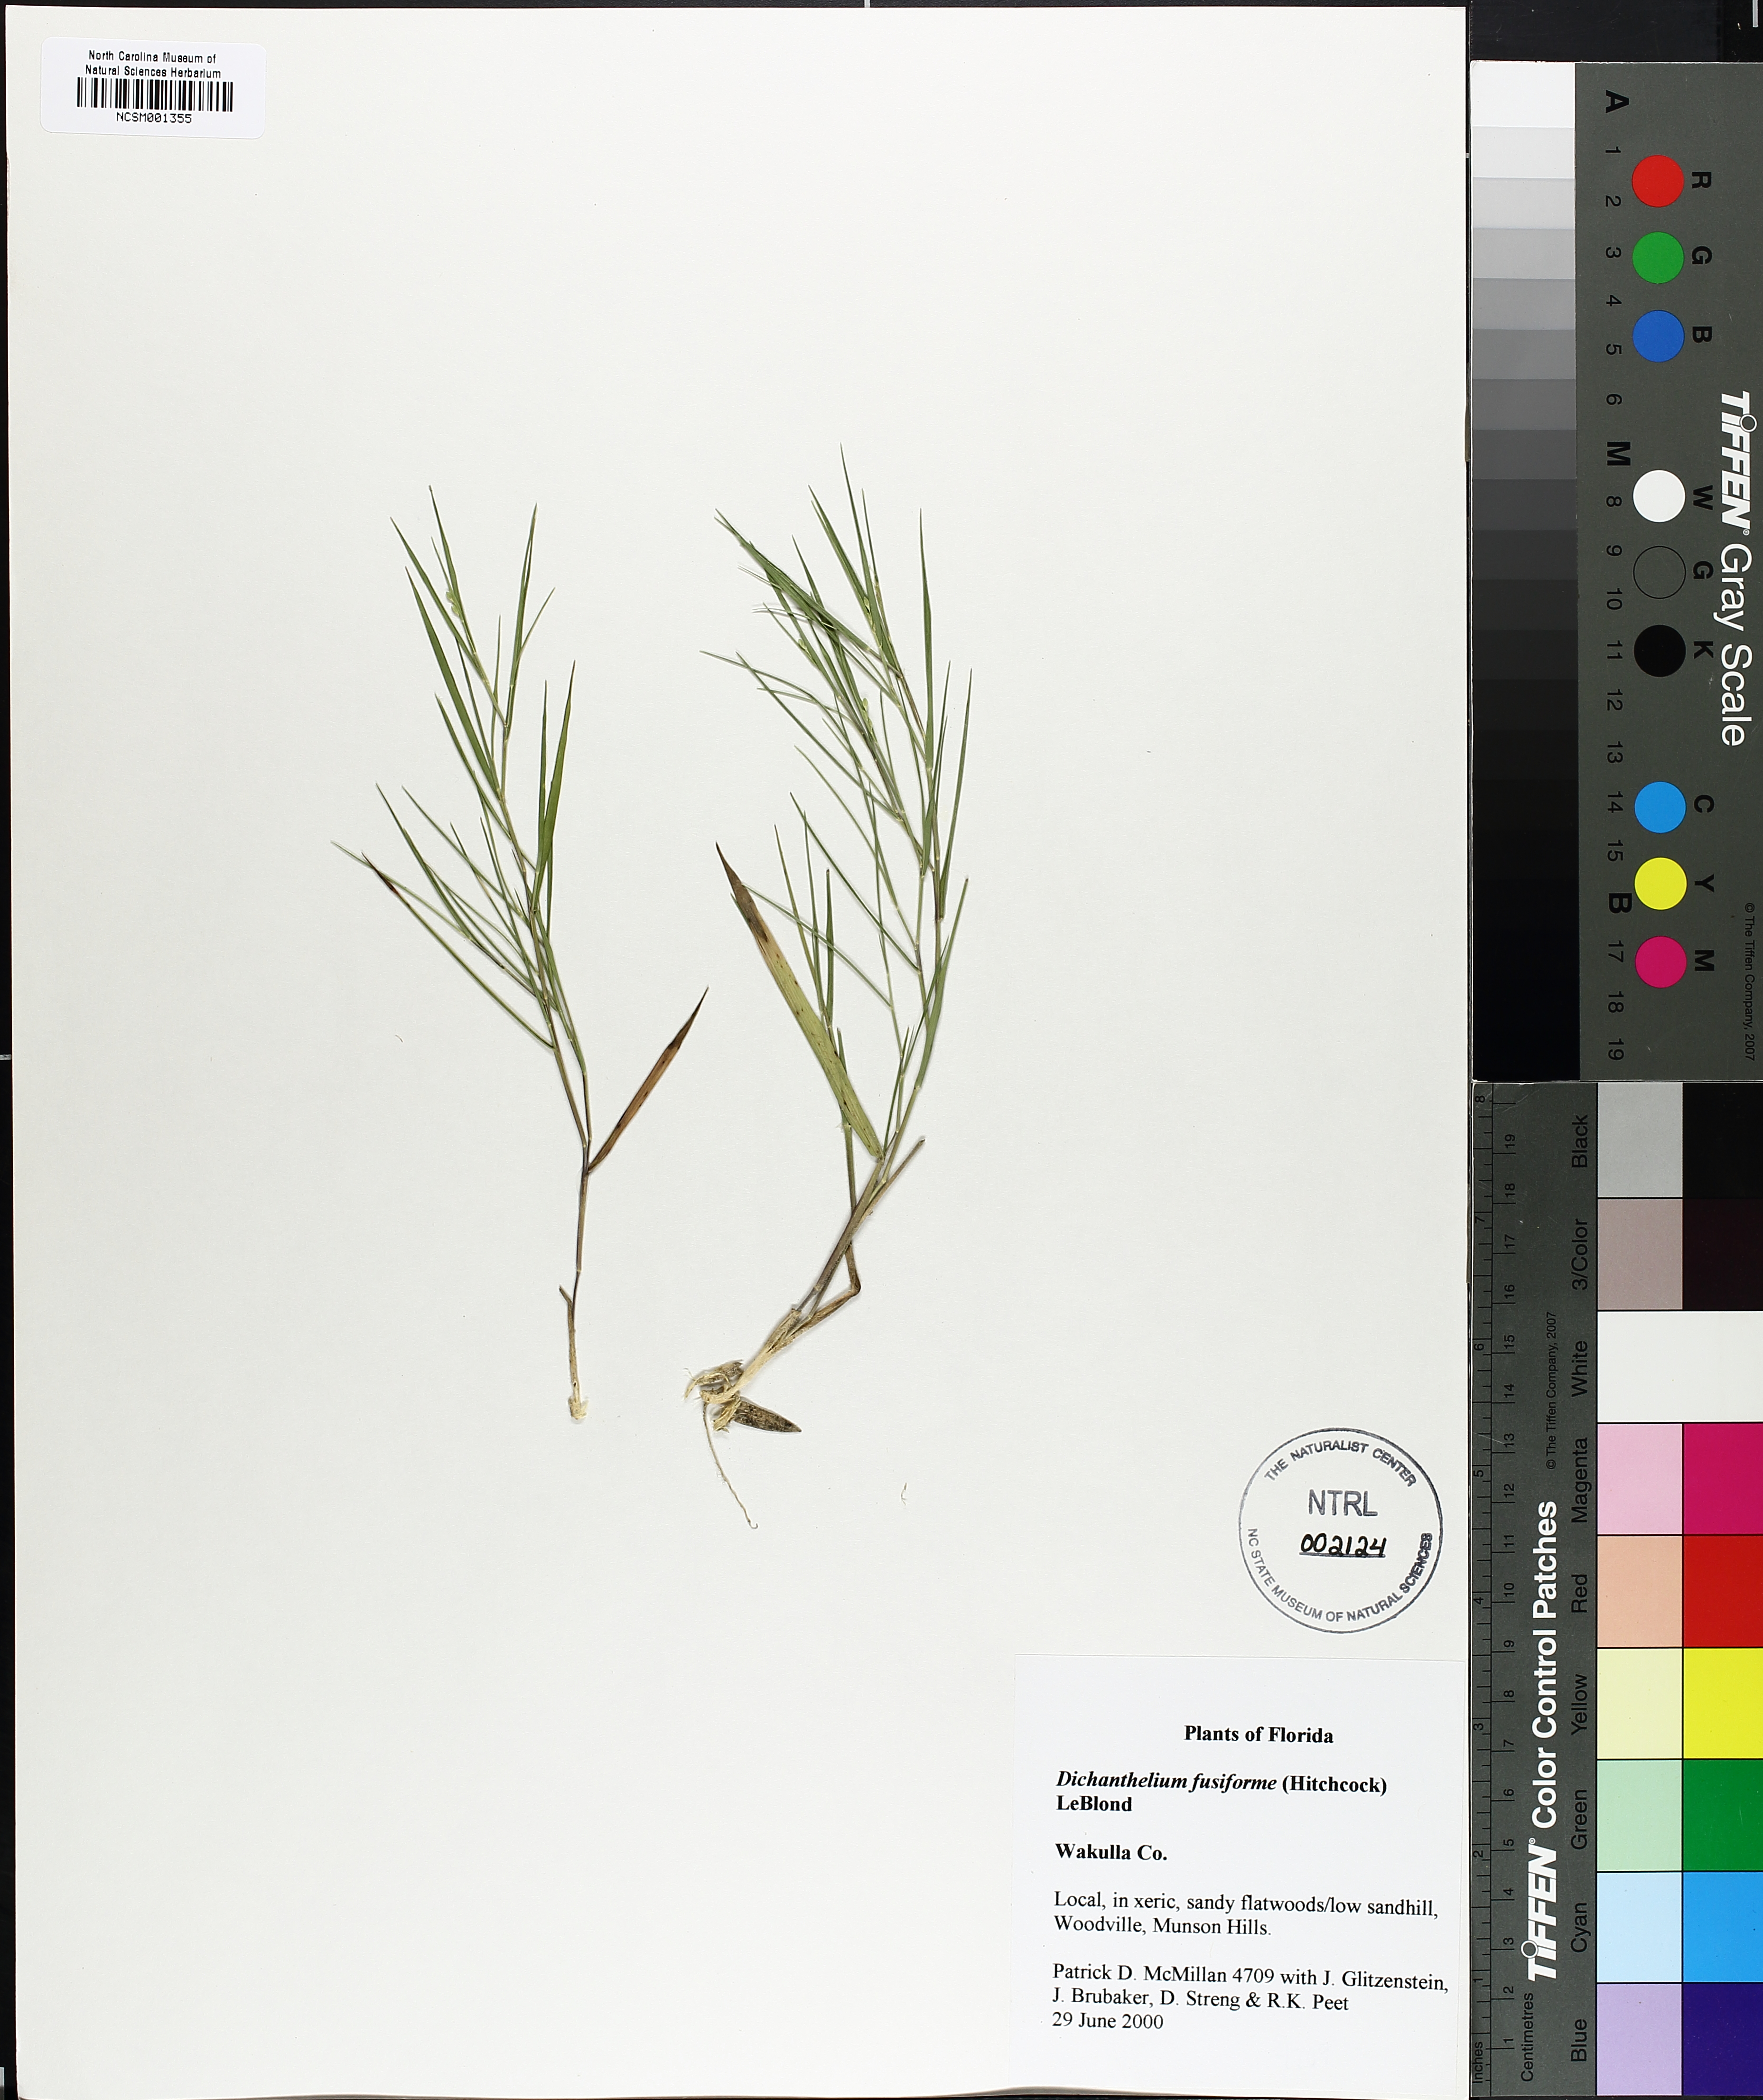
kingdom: Plantae
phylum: Tracheophyta
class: Liliopsida
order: Poales
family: Poaceae
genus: Dichanthelium
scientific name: Dichanthelium aciculare
